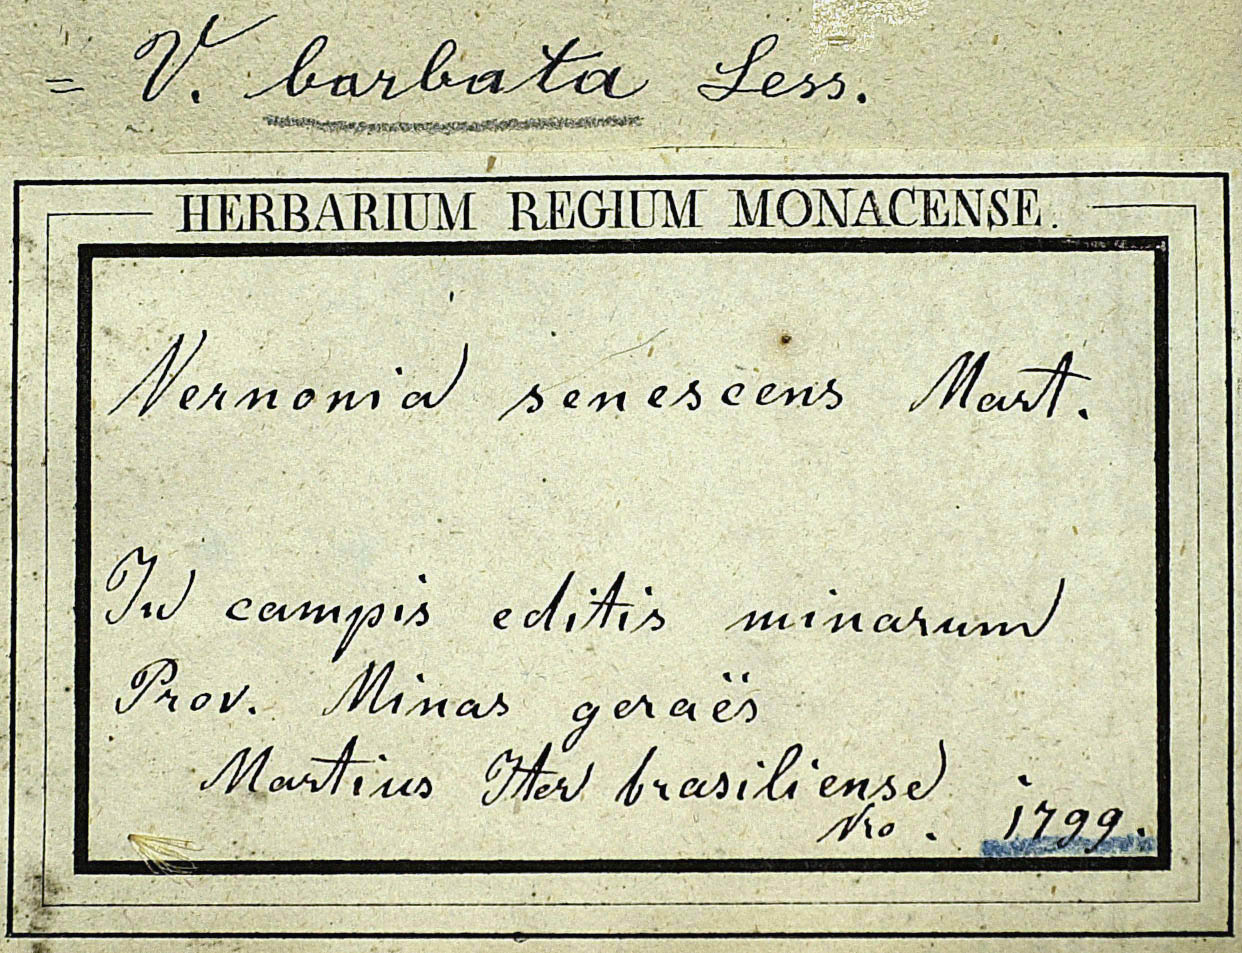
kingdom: Plantae
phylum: Tracheophyta
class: Magnoliopsida
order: Asterales
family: Asteraceae
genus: Lepidaploa
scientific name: Lepidaploa barbata
